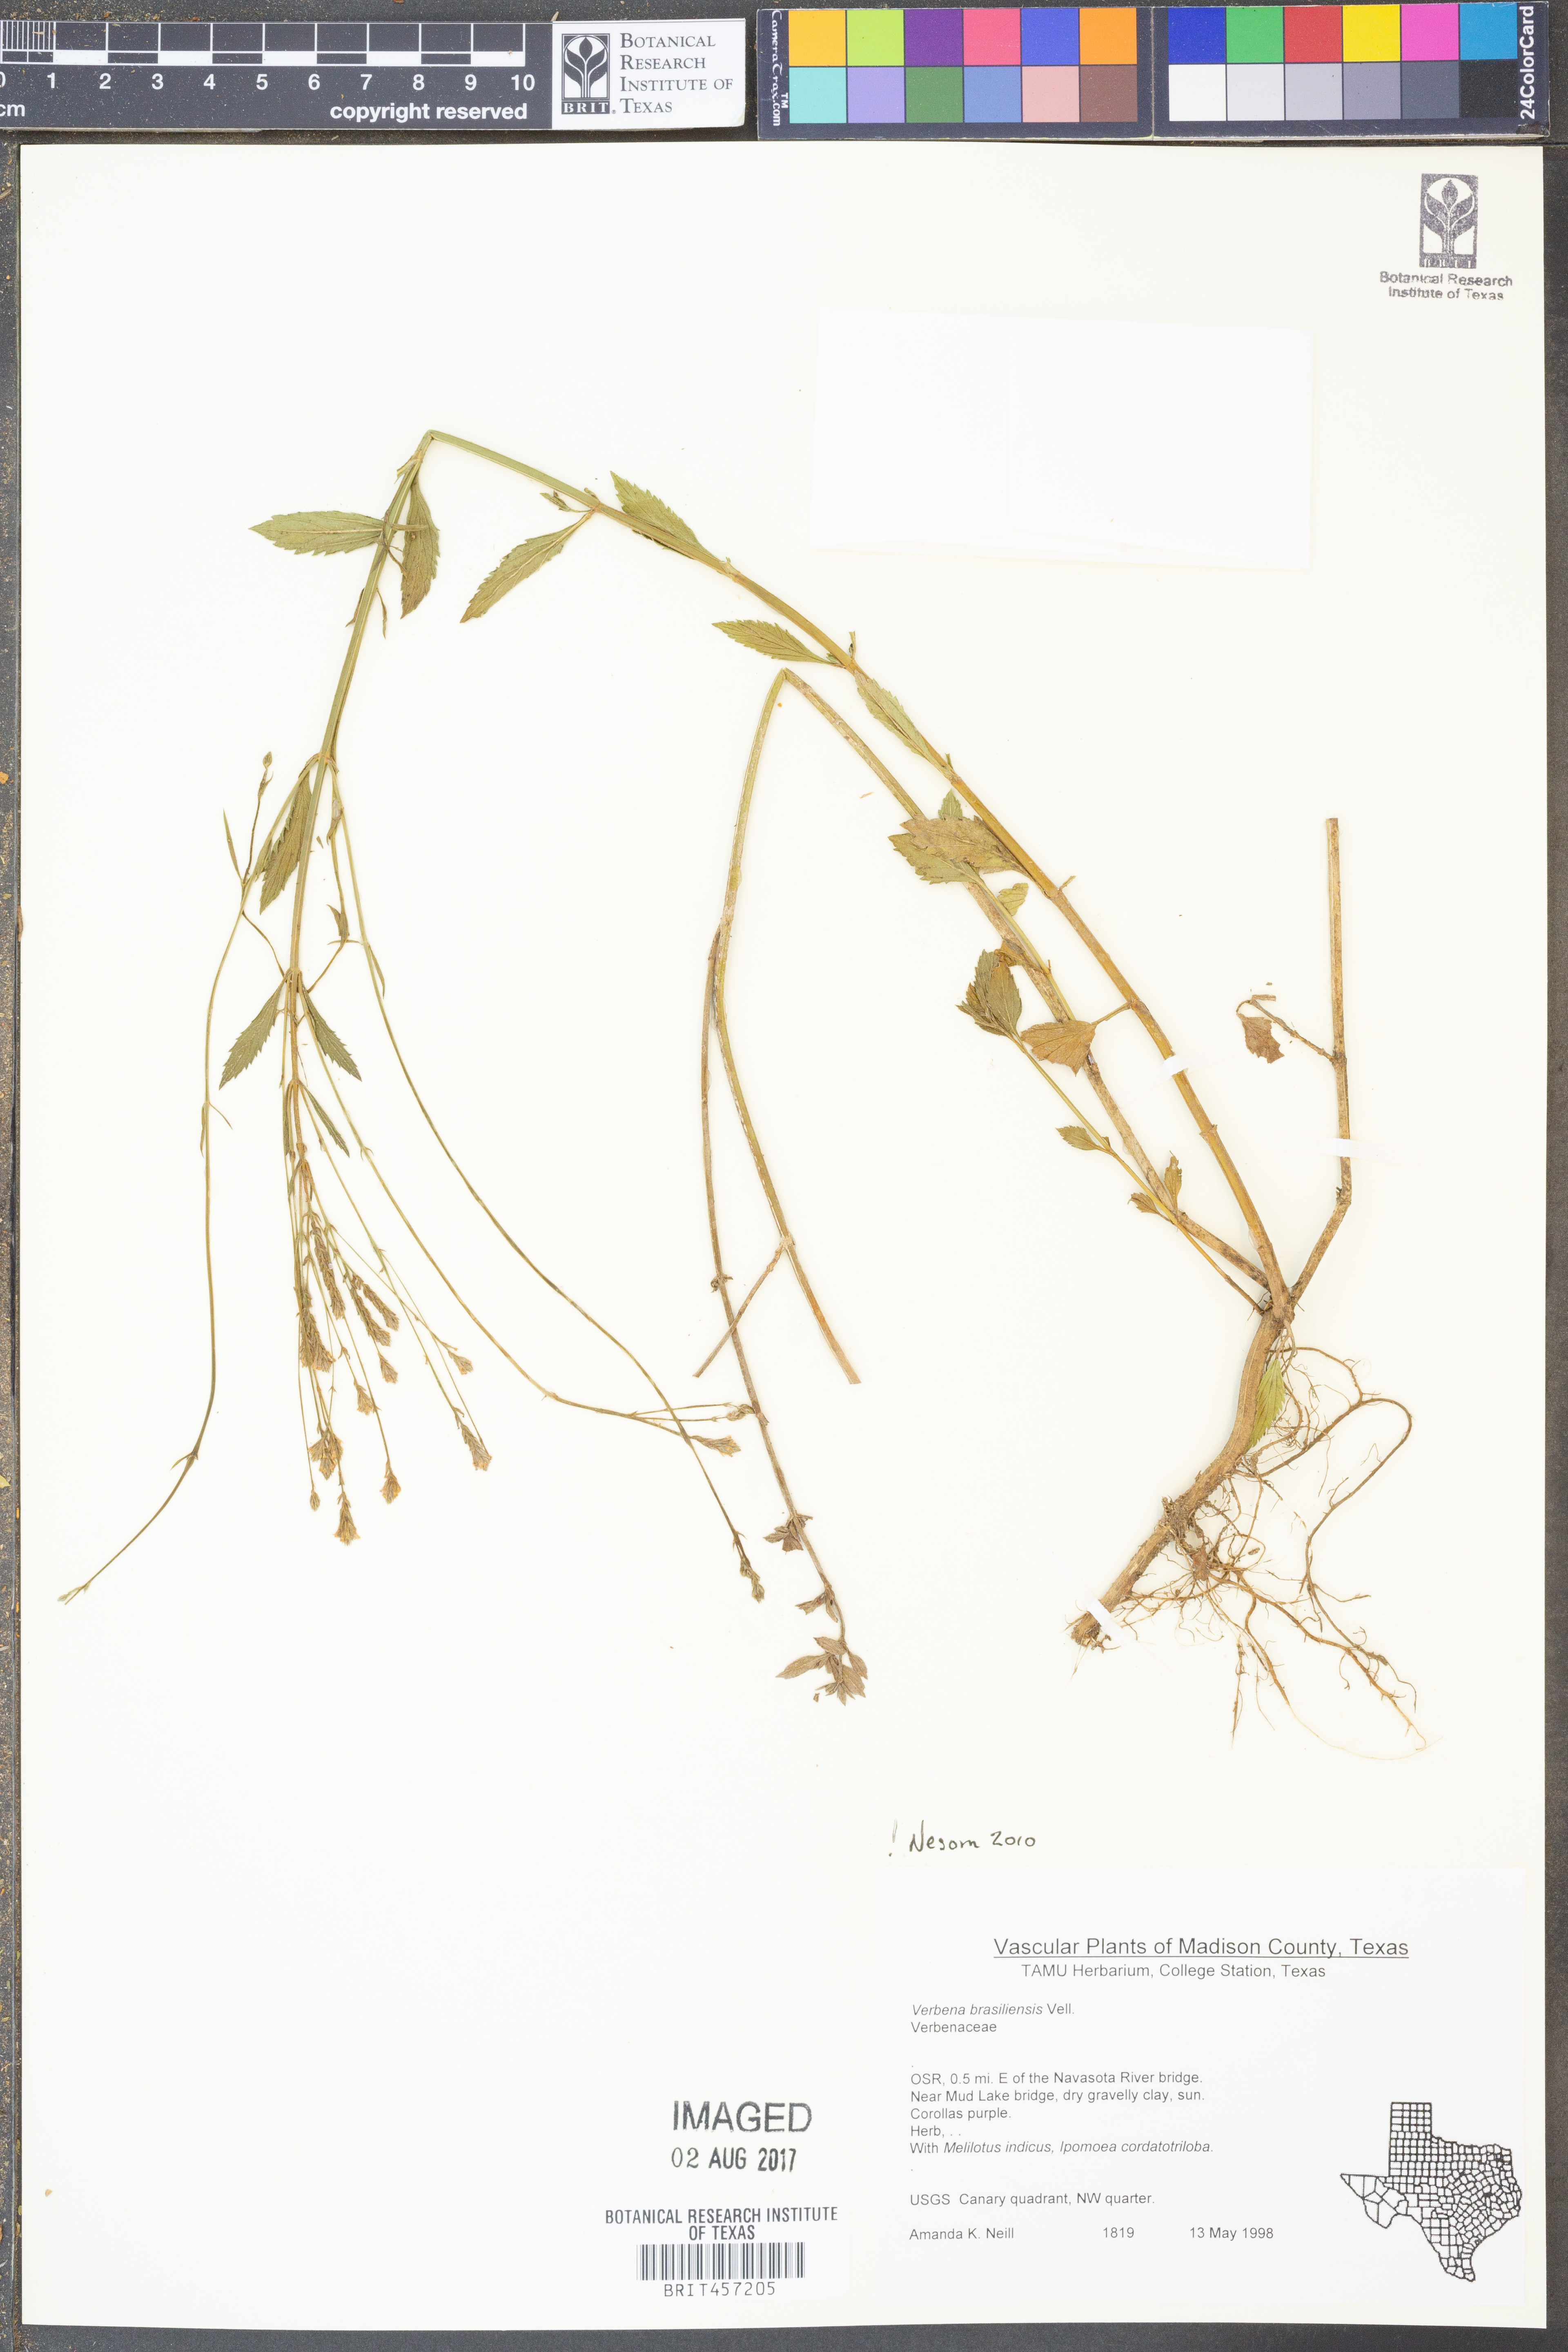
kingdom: Plantae
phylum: Tracheophyta
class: Magnoliopsida
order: Lamiales
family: Verbenaceae
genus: Verbena
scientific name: Verbena brasiliensis
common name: Brazilian vervain
